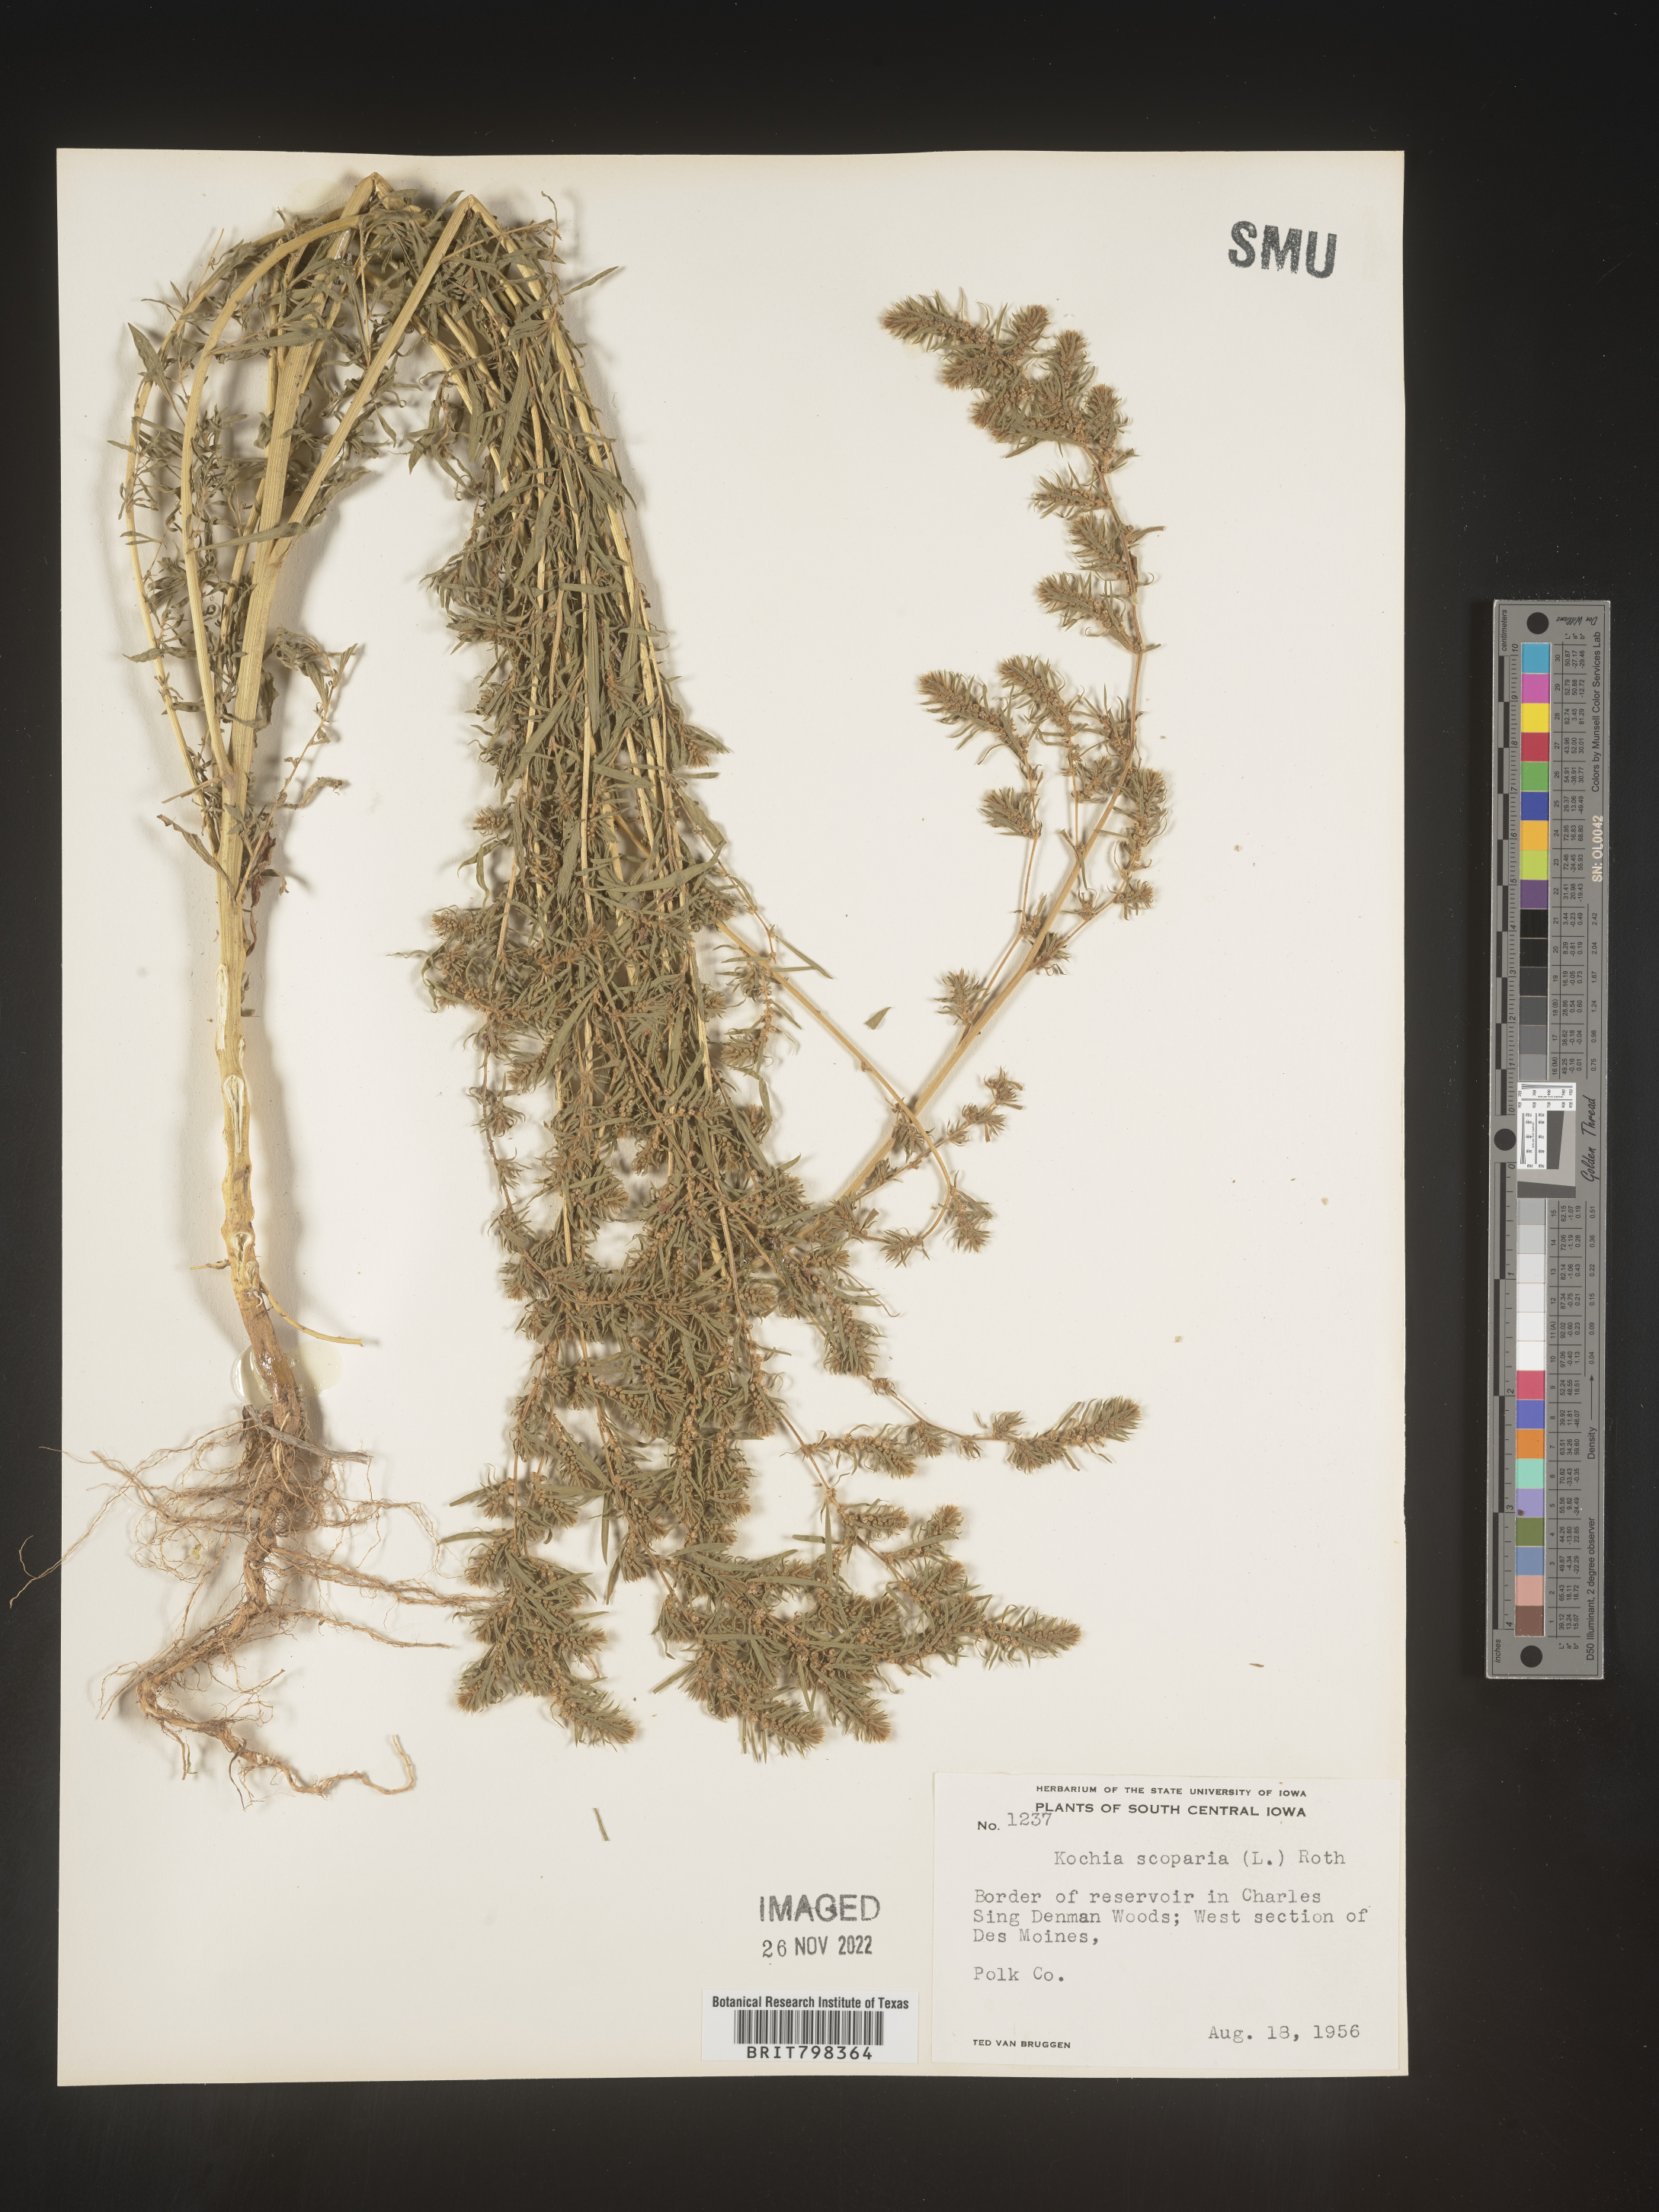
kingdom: Plantae
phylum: Tracheophyta
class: Magnoliopsida
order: Caryophyllales
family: Amaranthaceae
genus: Bassia
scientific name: Bassia
